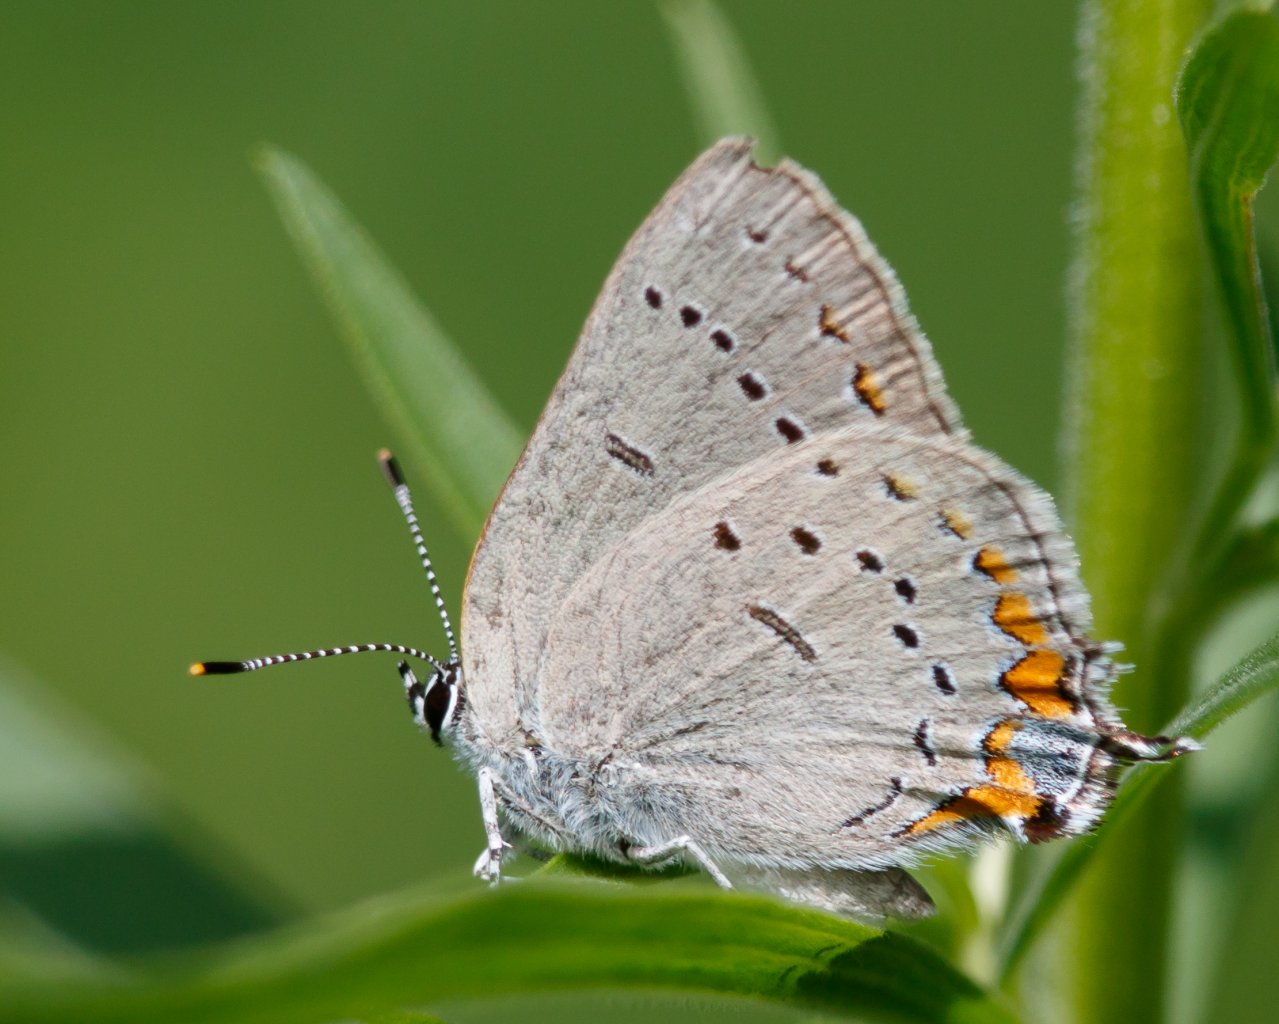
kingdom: Animalia
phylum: Arthropoda
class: Insecta
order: Lepidoptera
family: Lycaenidae
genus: Strymon
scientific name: Strymon acadica
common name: Acadian Hairstreak
